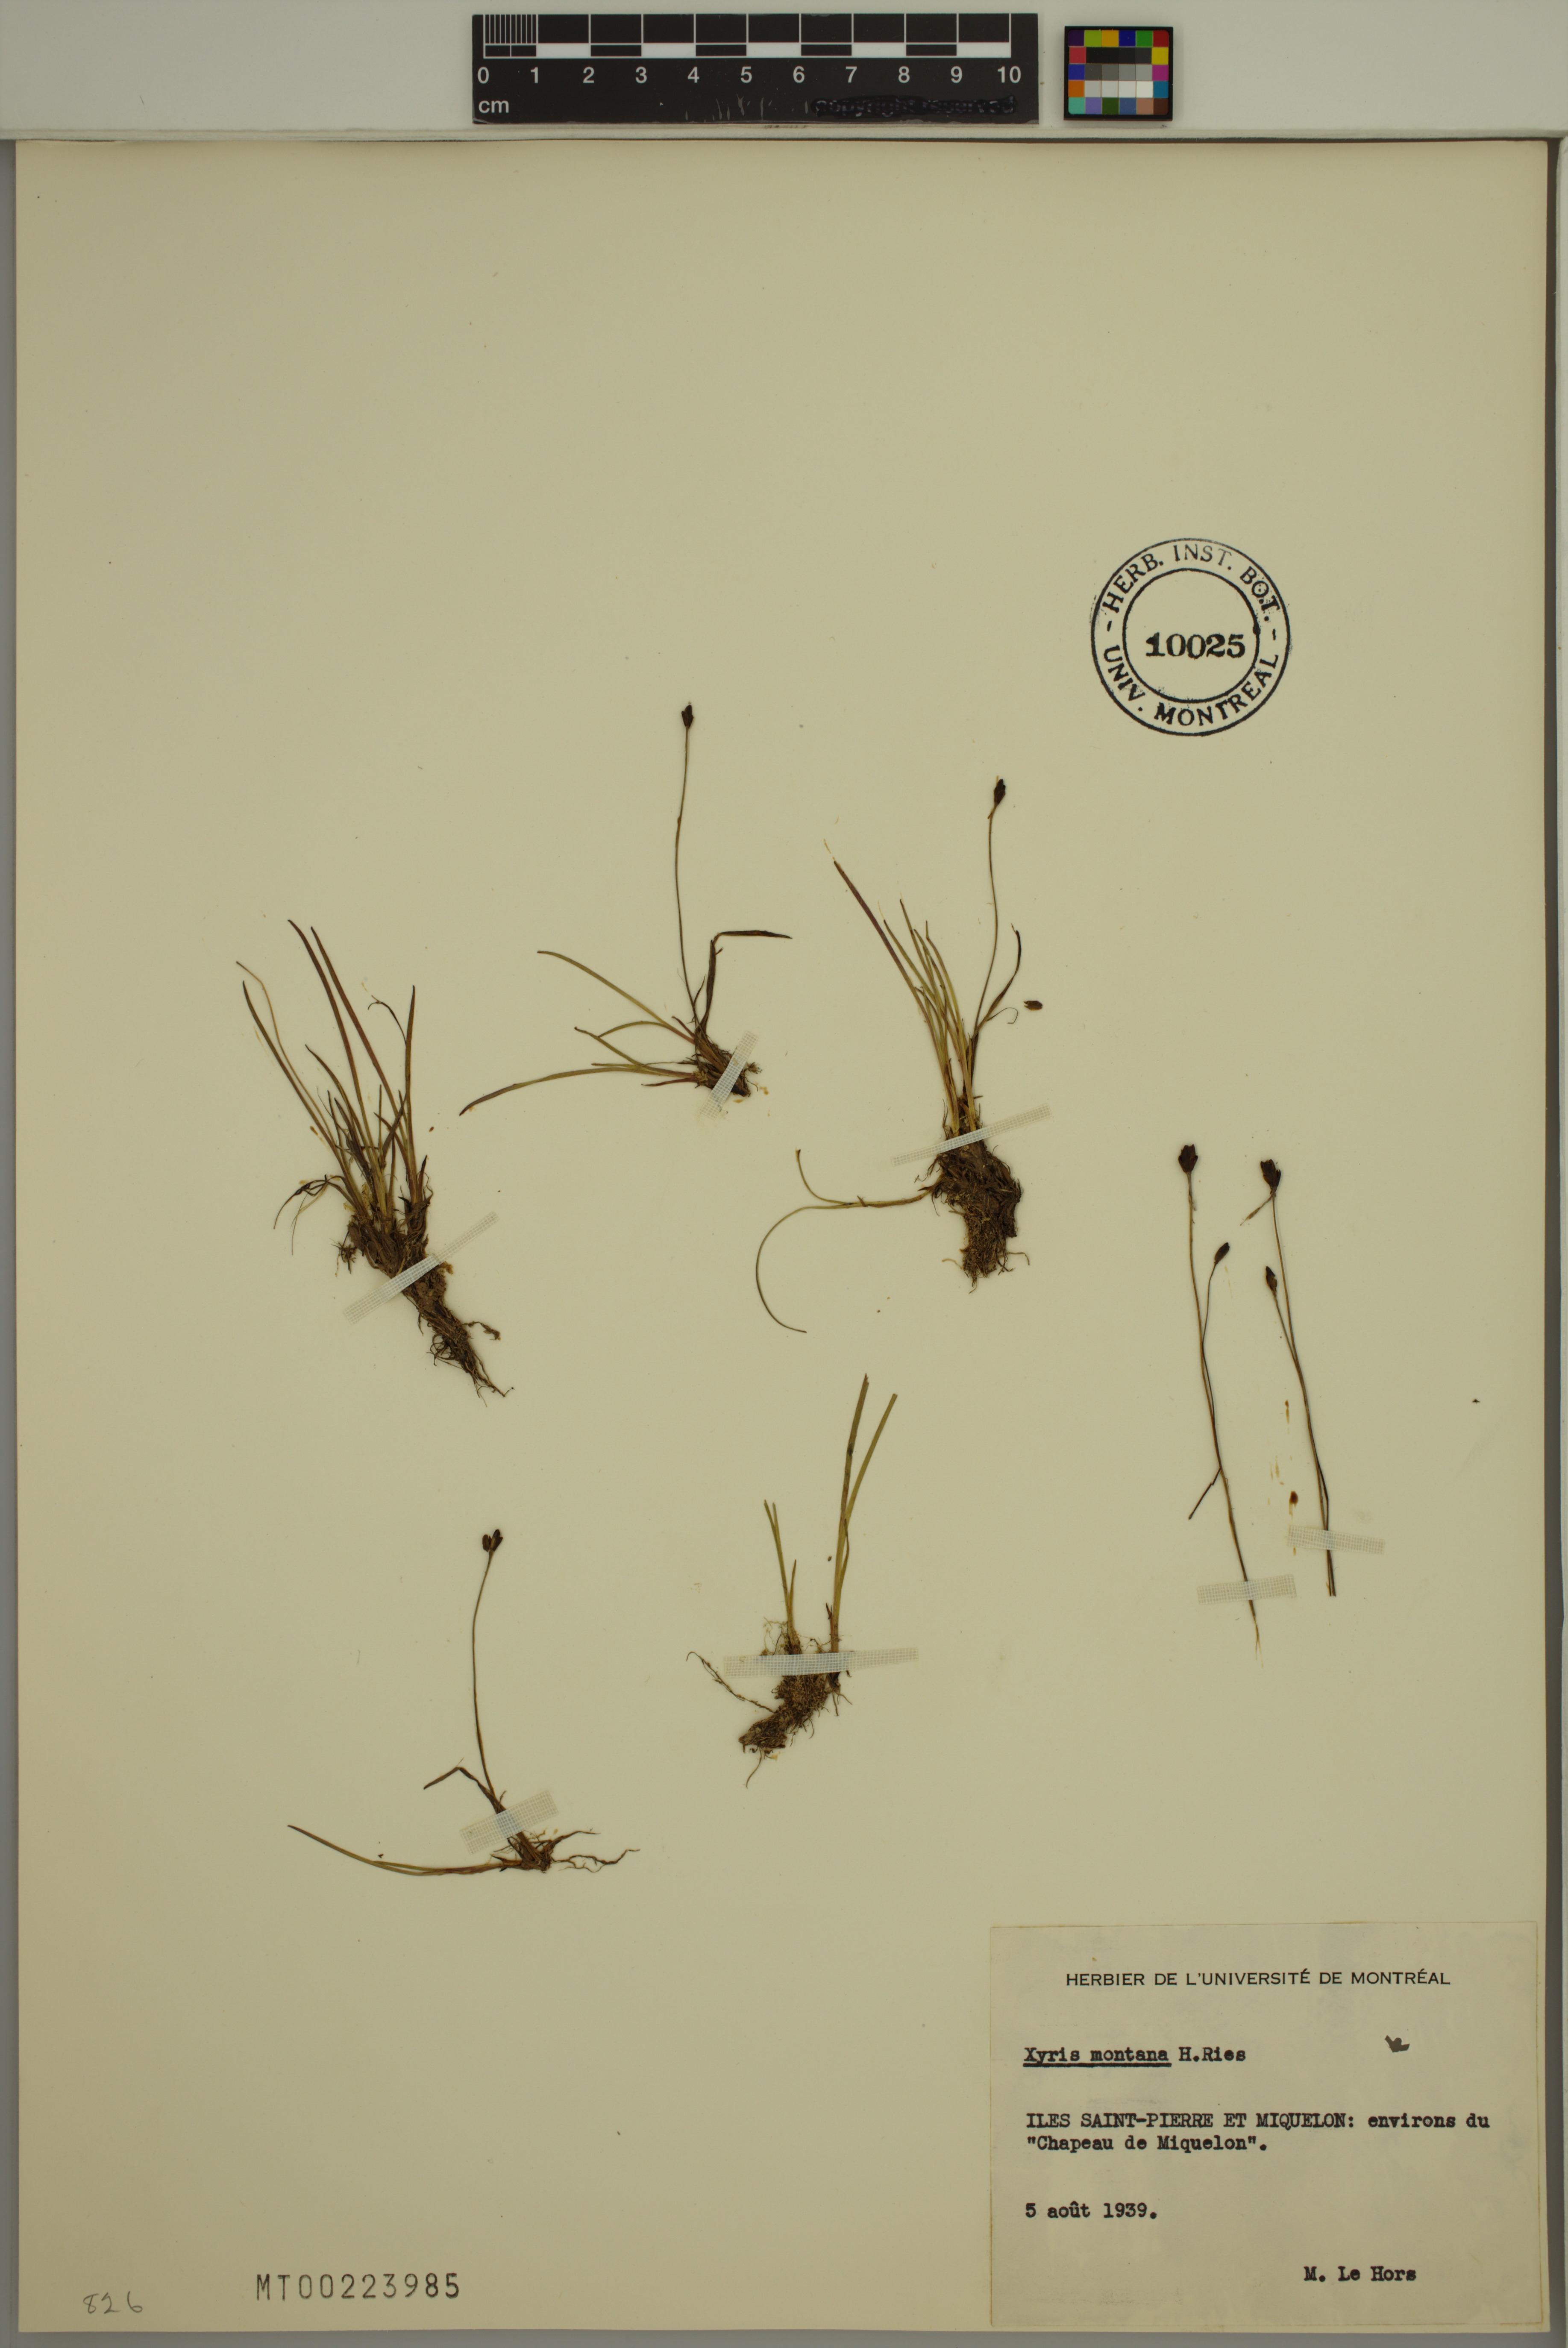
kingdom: Plantae
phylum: Tracheophyta
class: Liliopsida
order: Poales
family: Xyridaceae
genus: Xyris
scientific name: Xyris montana
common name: Northern yellow-eyed-grass
